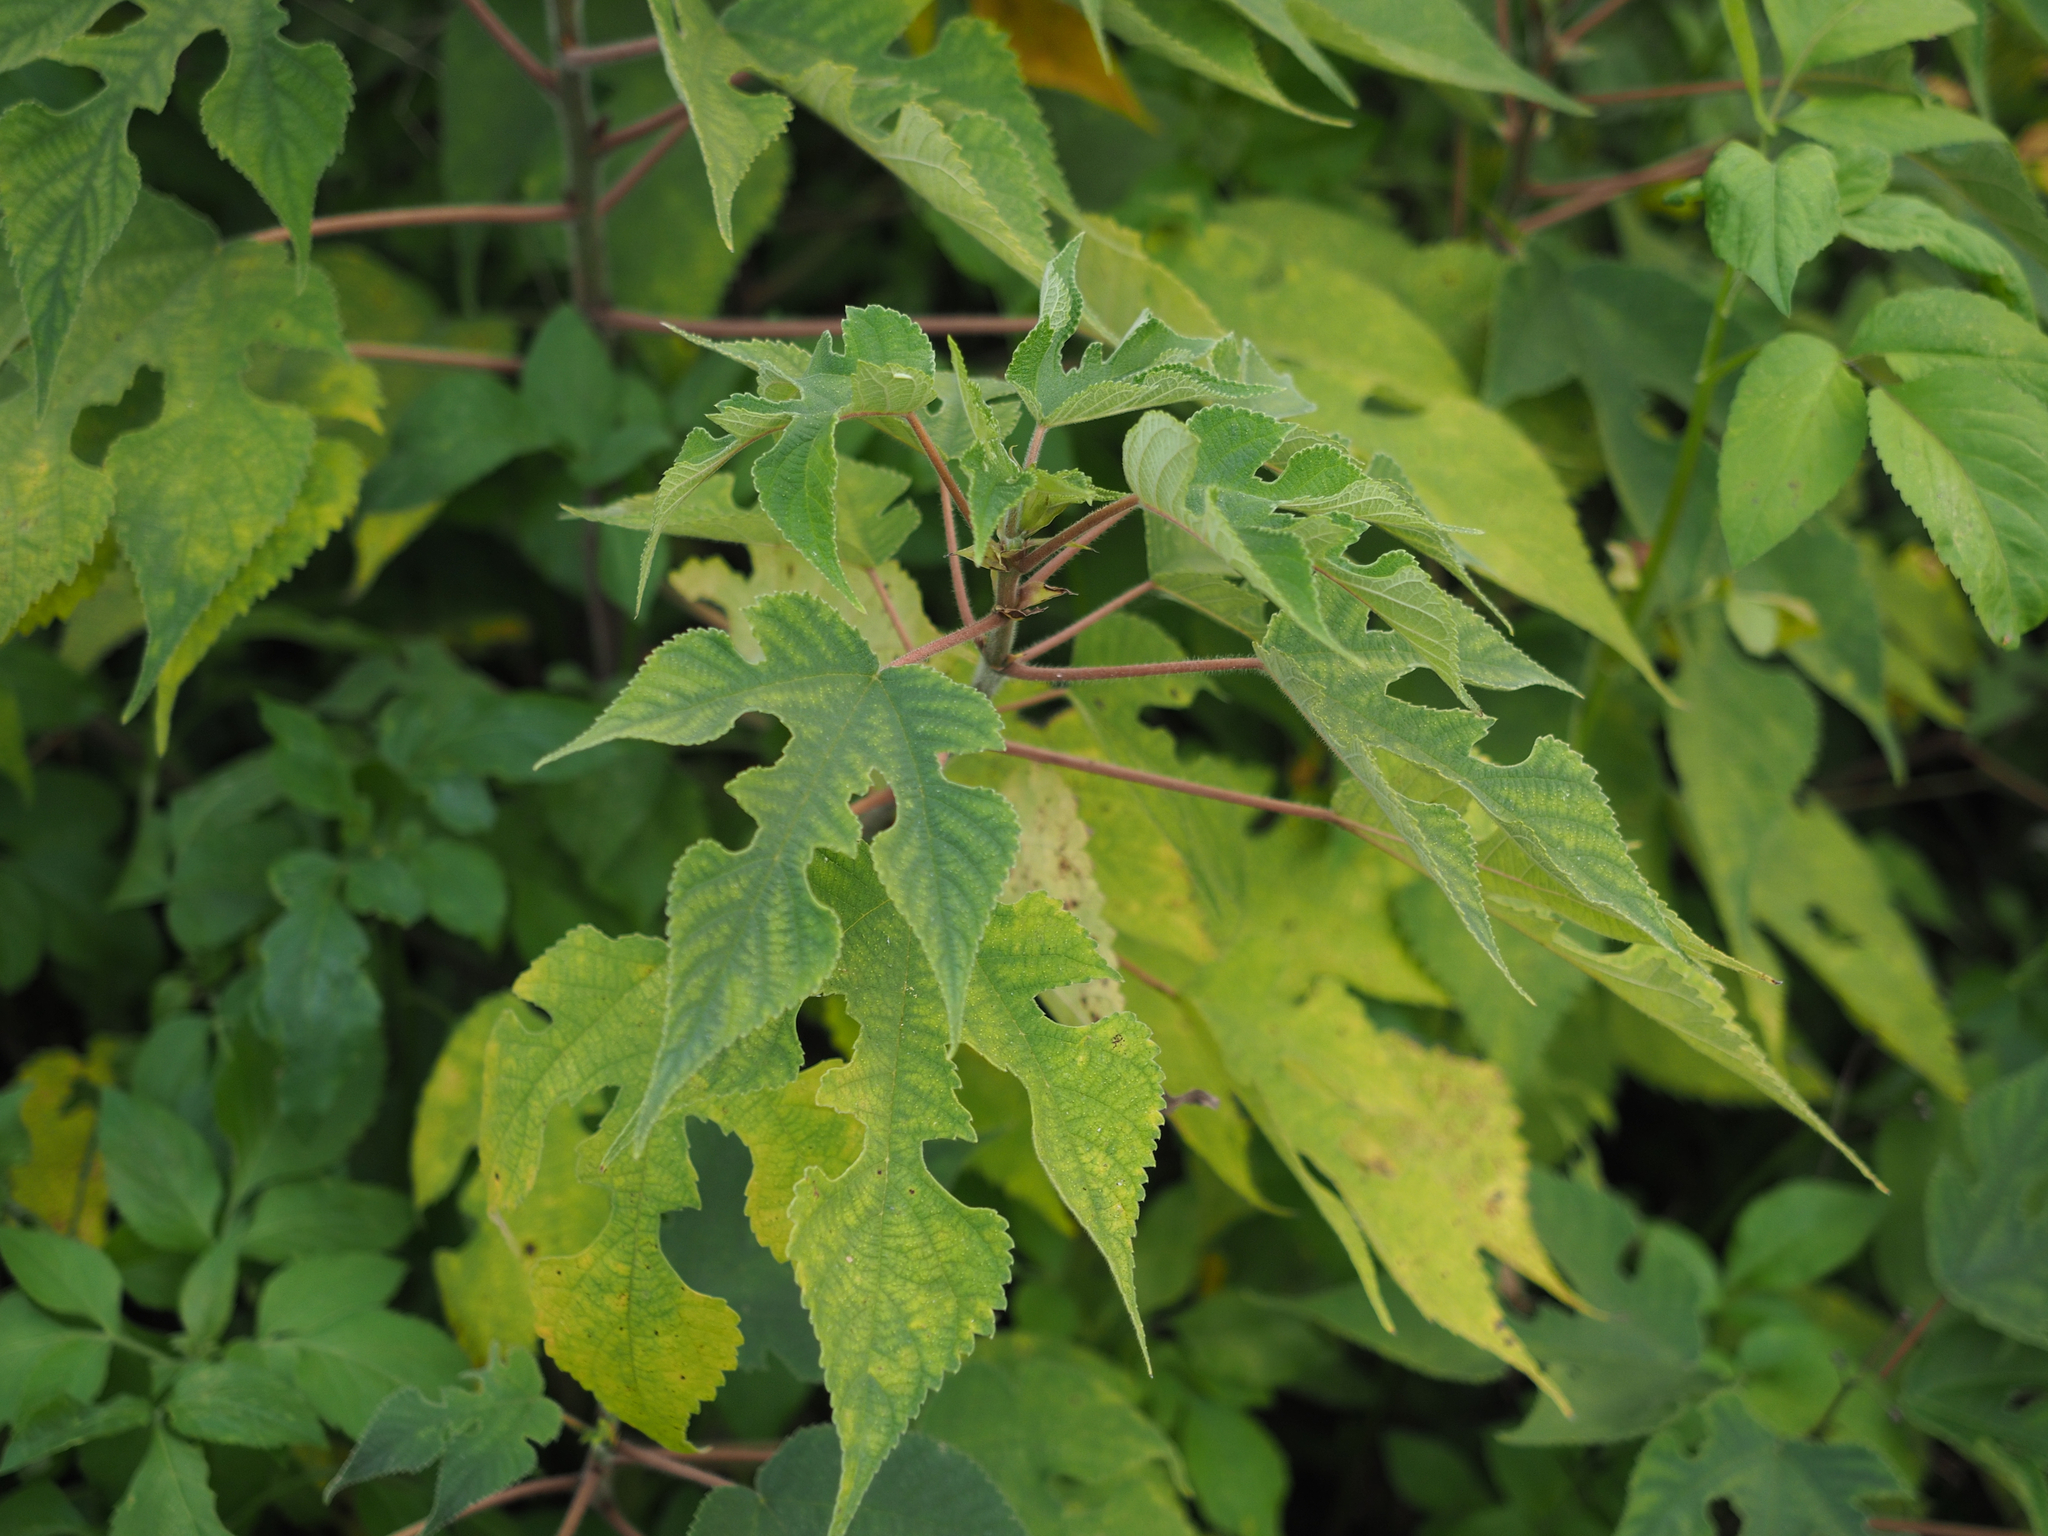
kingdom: Plantae
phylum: Tracheophyta
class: Magnoliopsida
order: Rosales
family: Moraceae
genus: Broussonetia
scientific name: Broussonetia papyrifera
